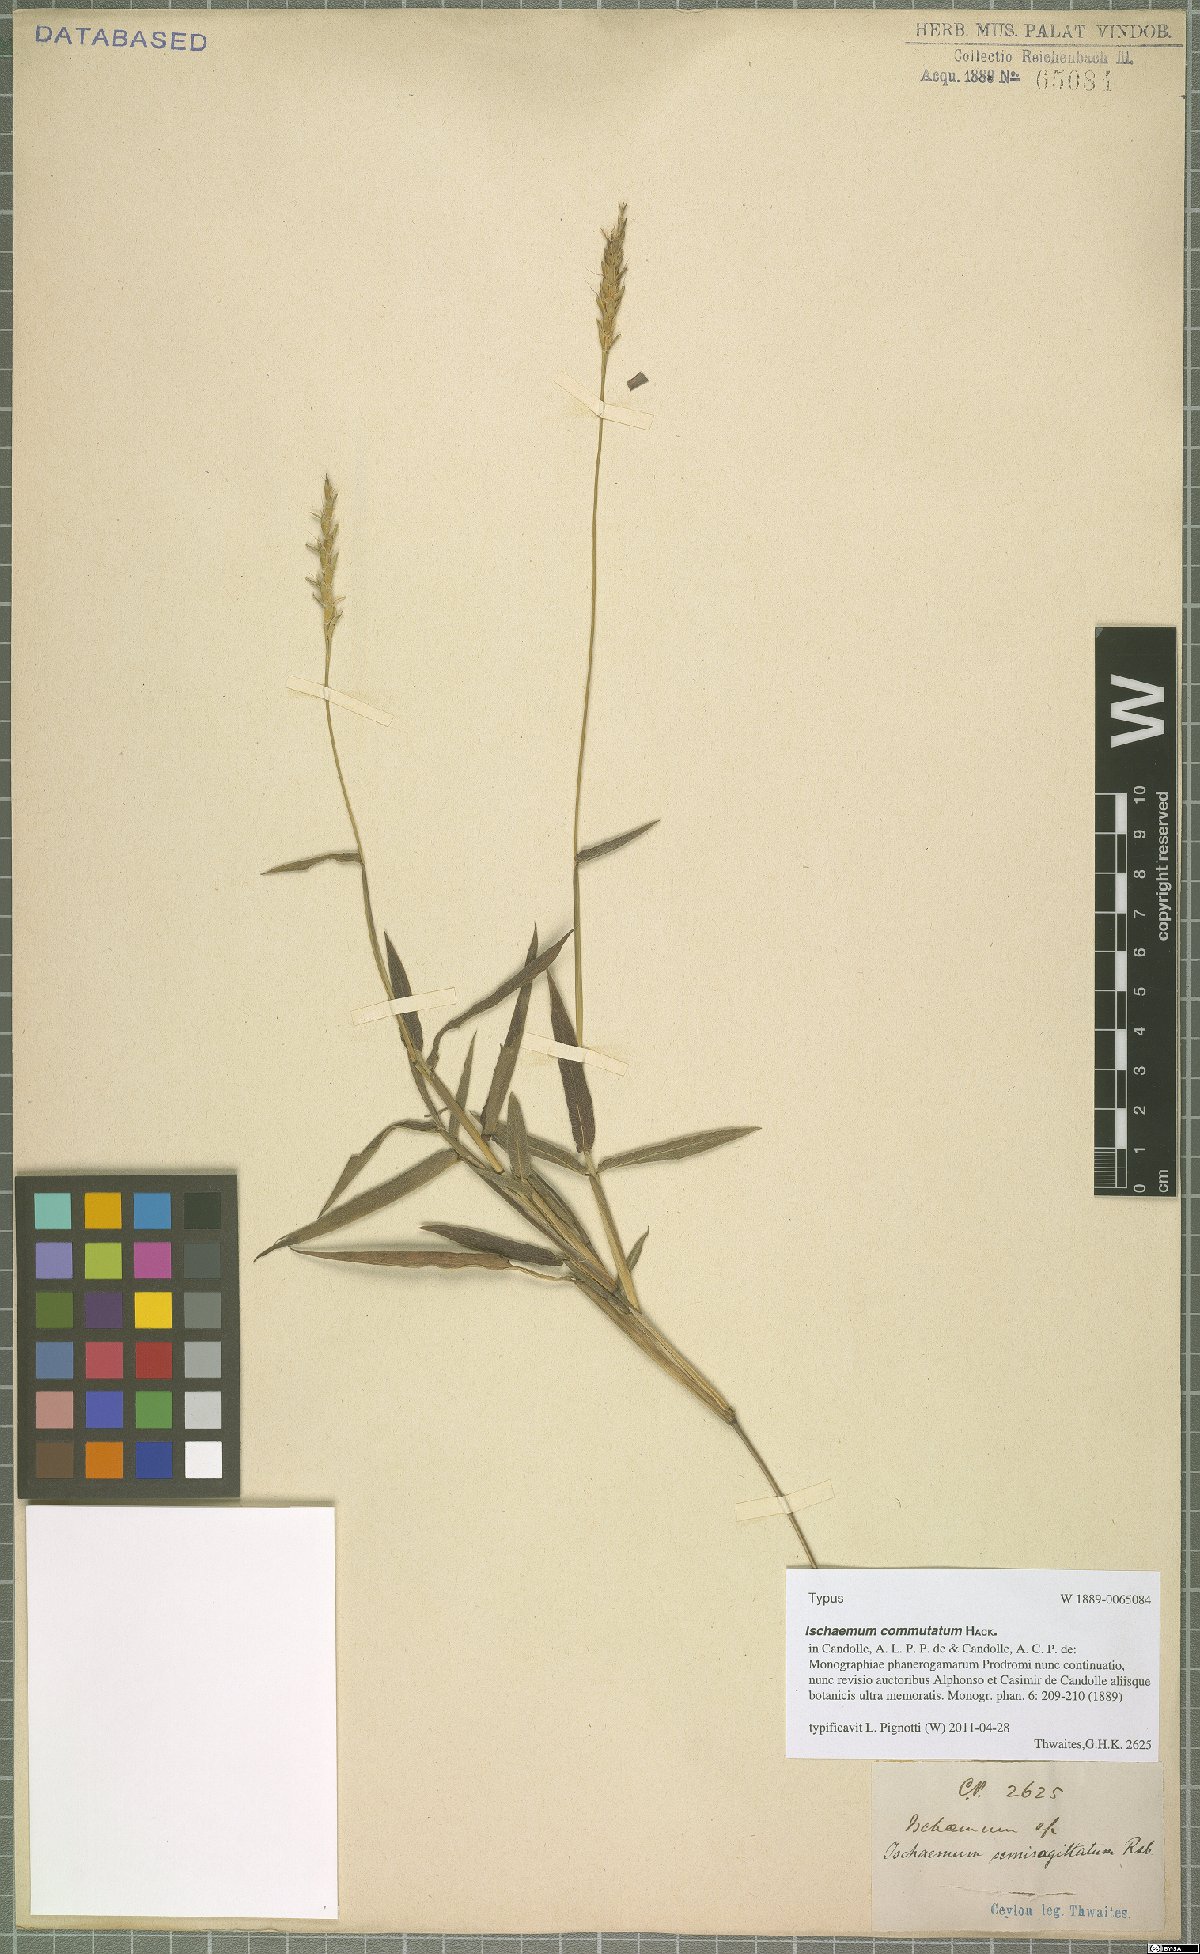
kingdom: Plantae
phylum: Tracheophyta
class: Liliopsida
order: Poales
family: Poaceae
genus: Ischaemum
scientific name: Ischaemum commutatum
